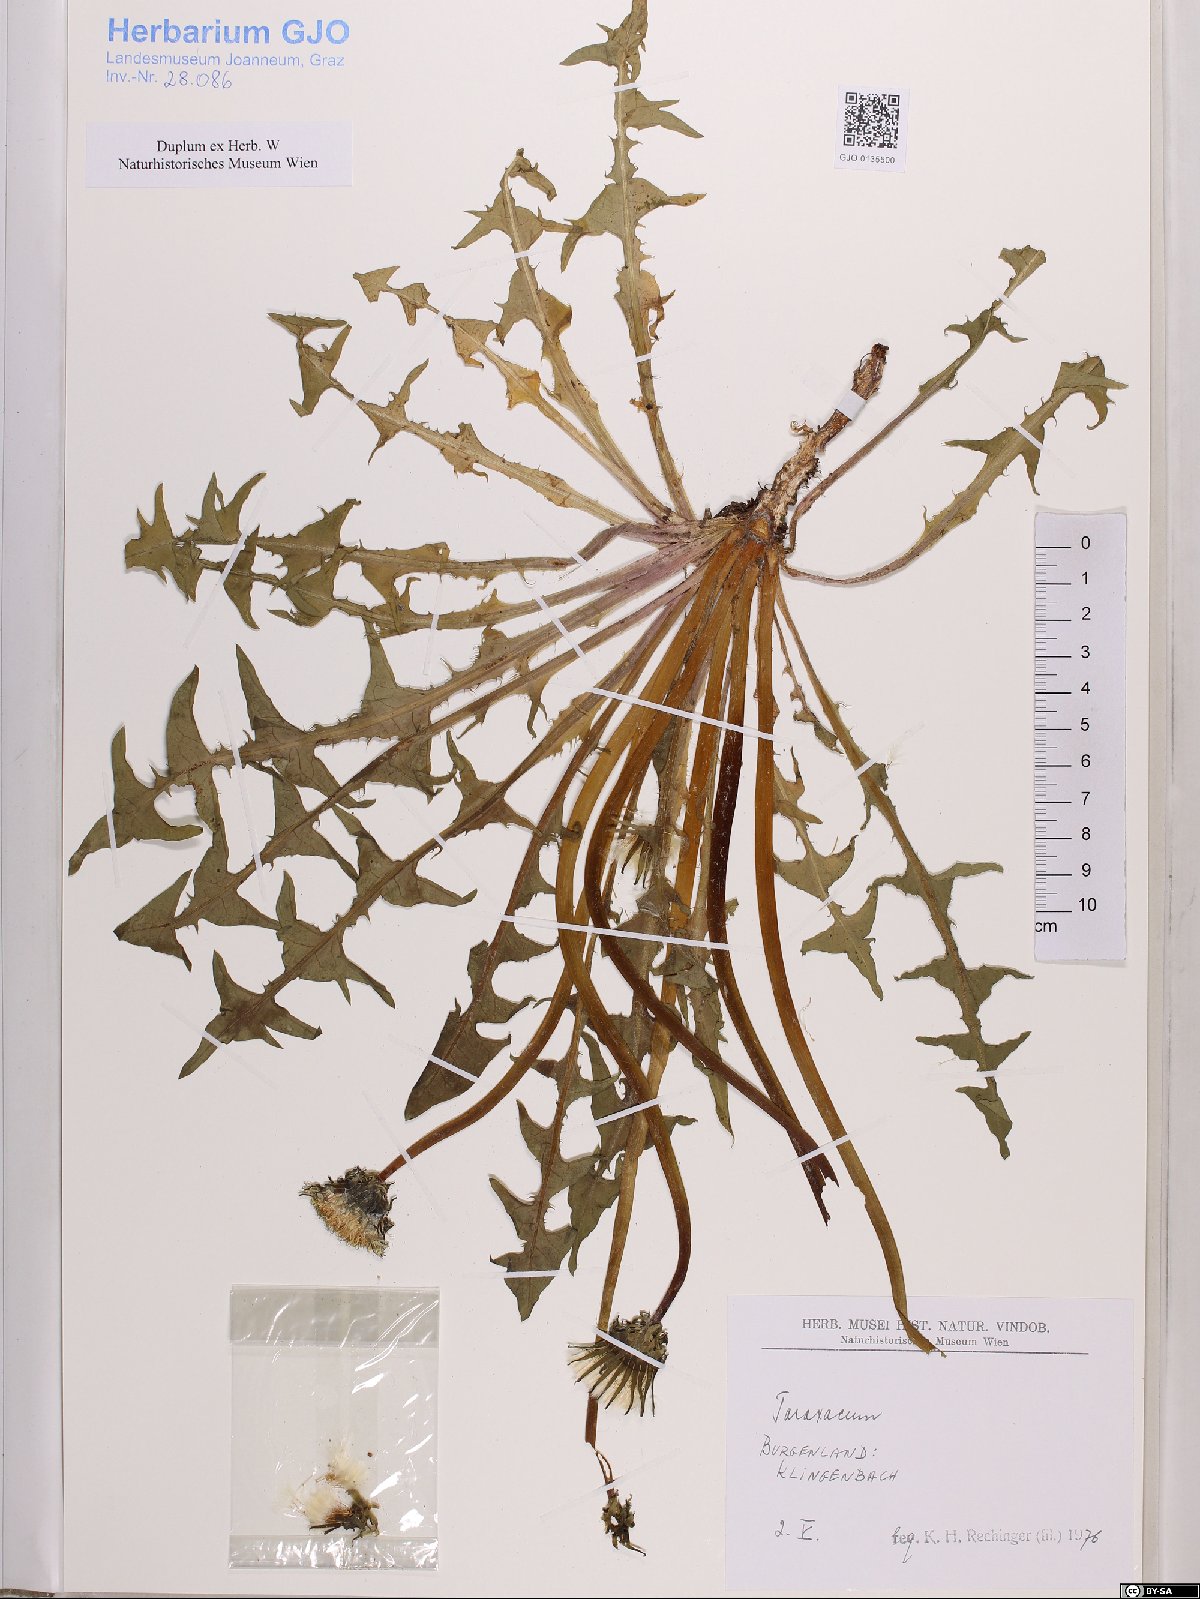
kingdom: Plantae
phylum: Tracheophyta
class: Magnoliopsida
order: Asterales
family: Asteraceae
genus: Taraxacum
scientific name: Taraxacum
